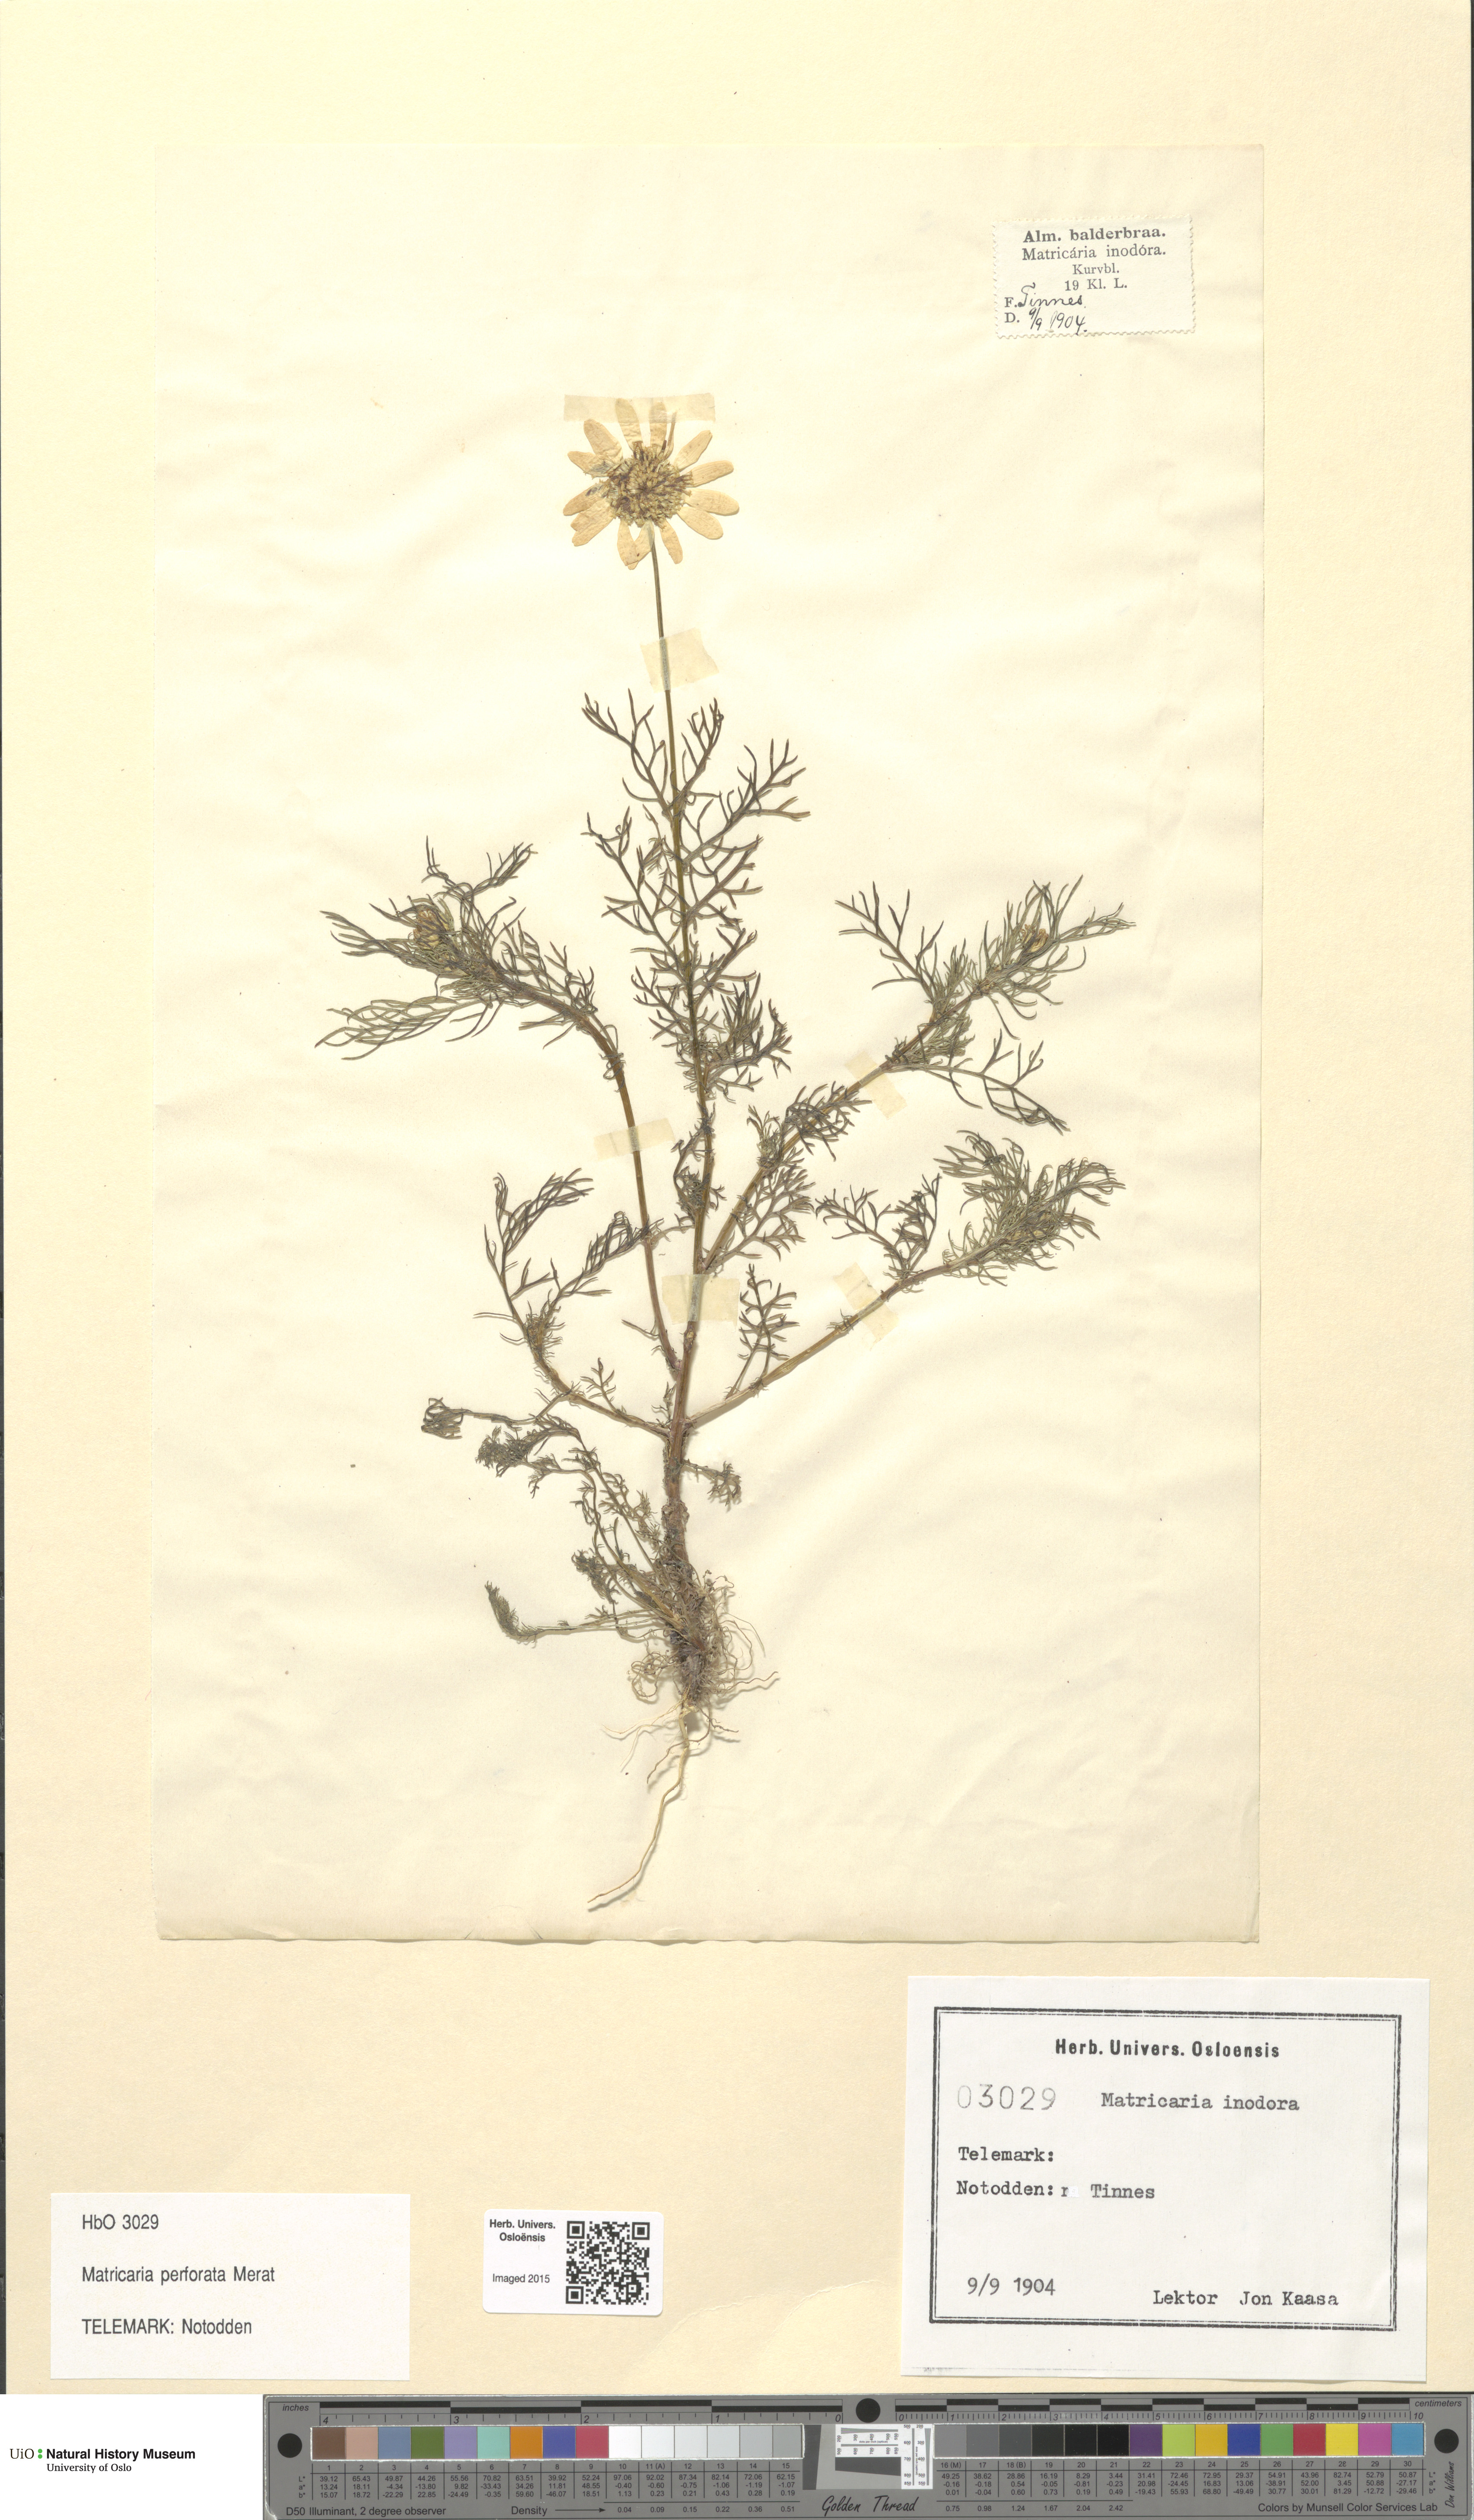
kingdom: Plantae
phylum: Tracheophyta
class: Magnoliopsida
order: Asterales
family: Asteraceae
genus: Tripleurospermum
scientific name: Tripleurospermum inodorum
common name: Scentless mayweed
